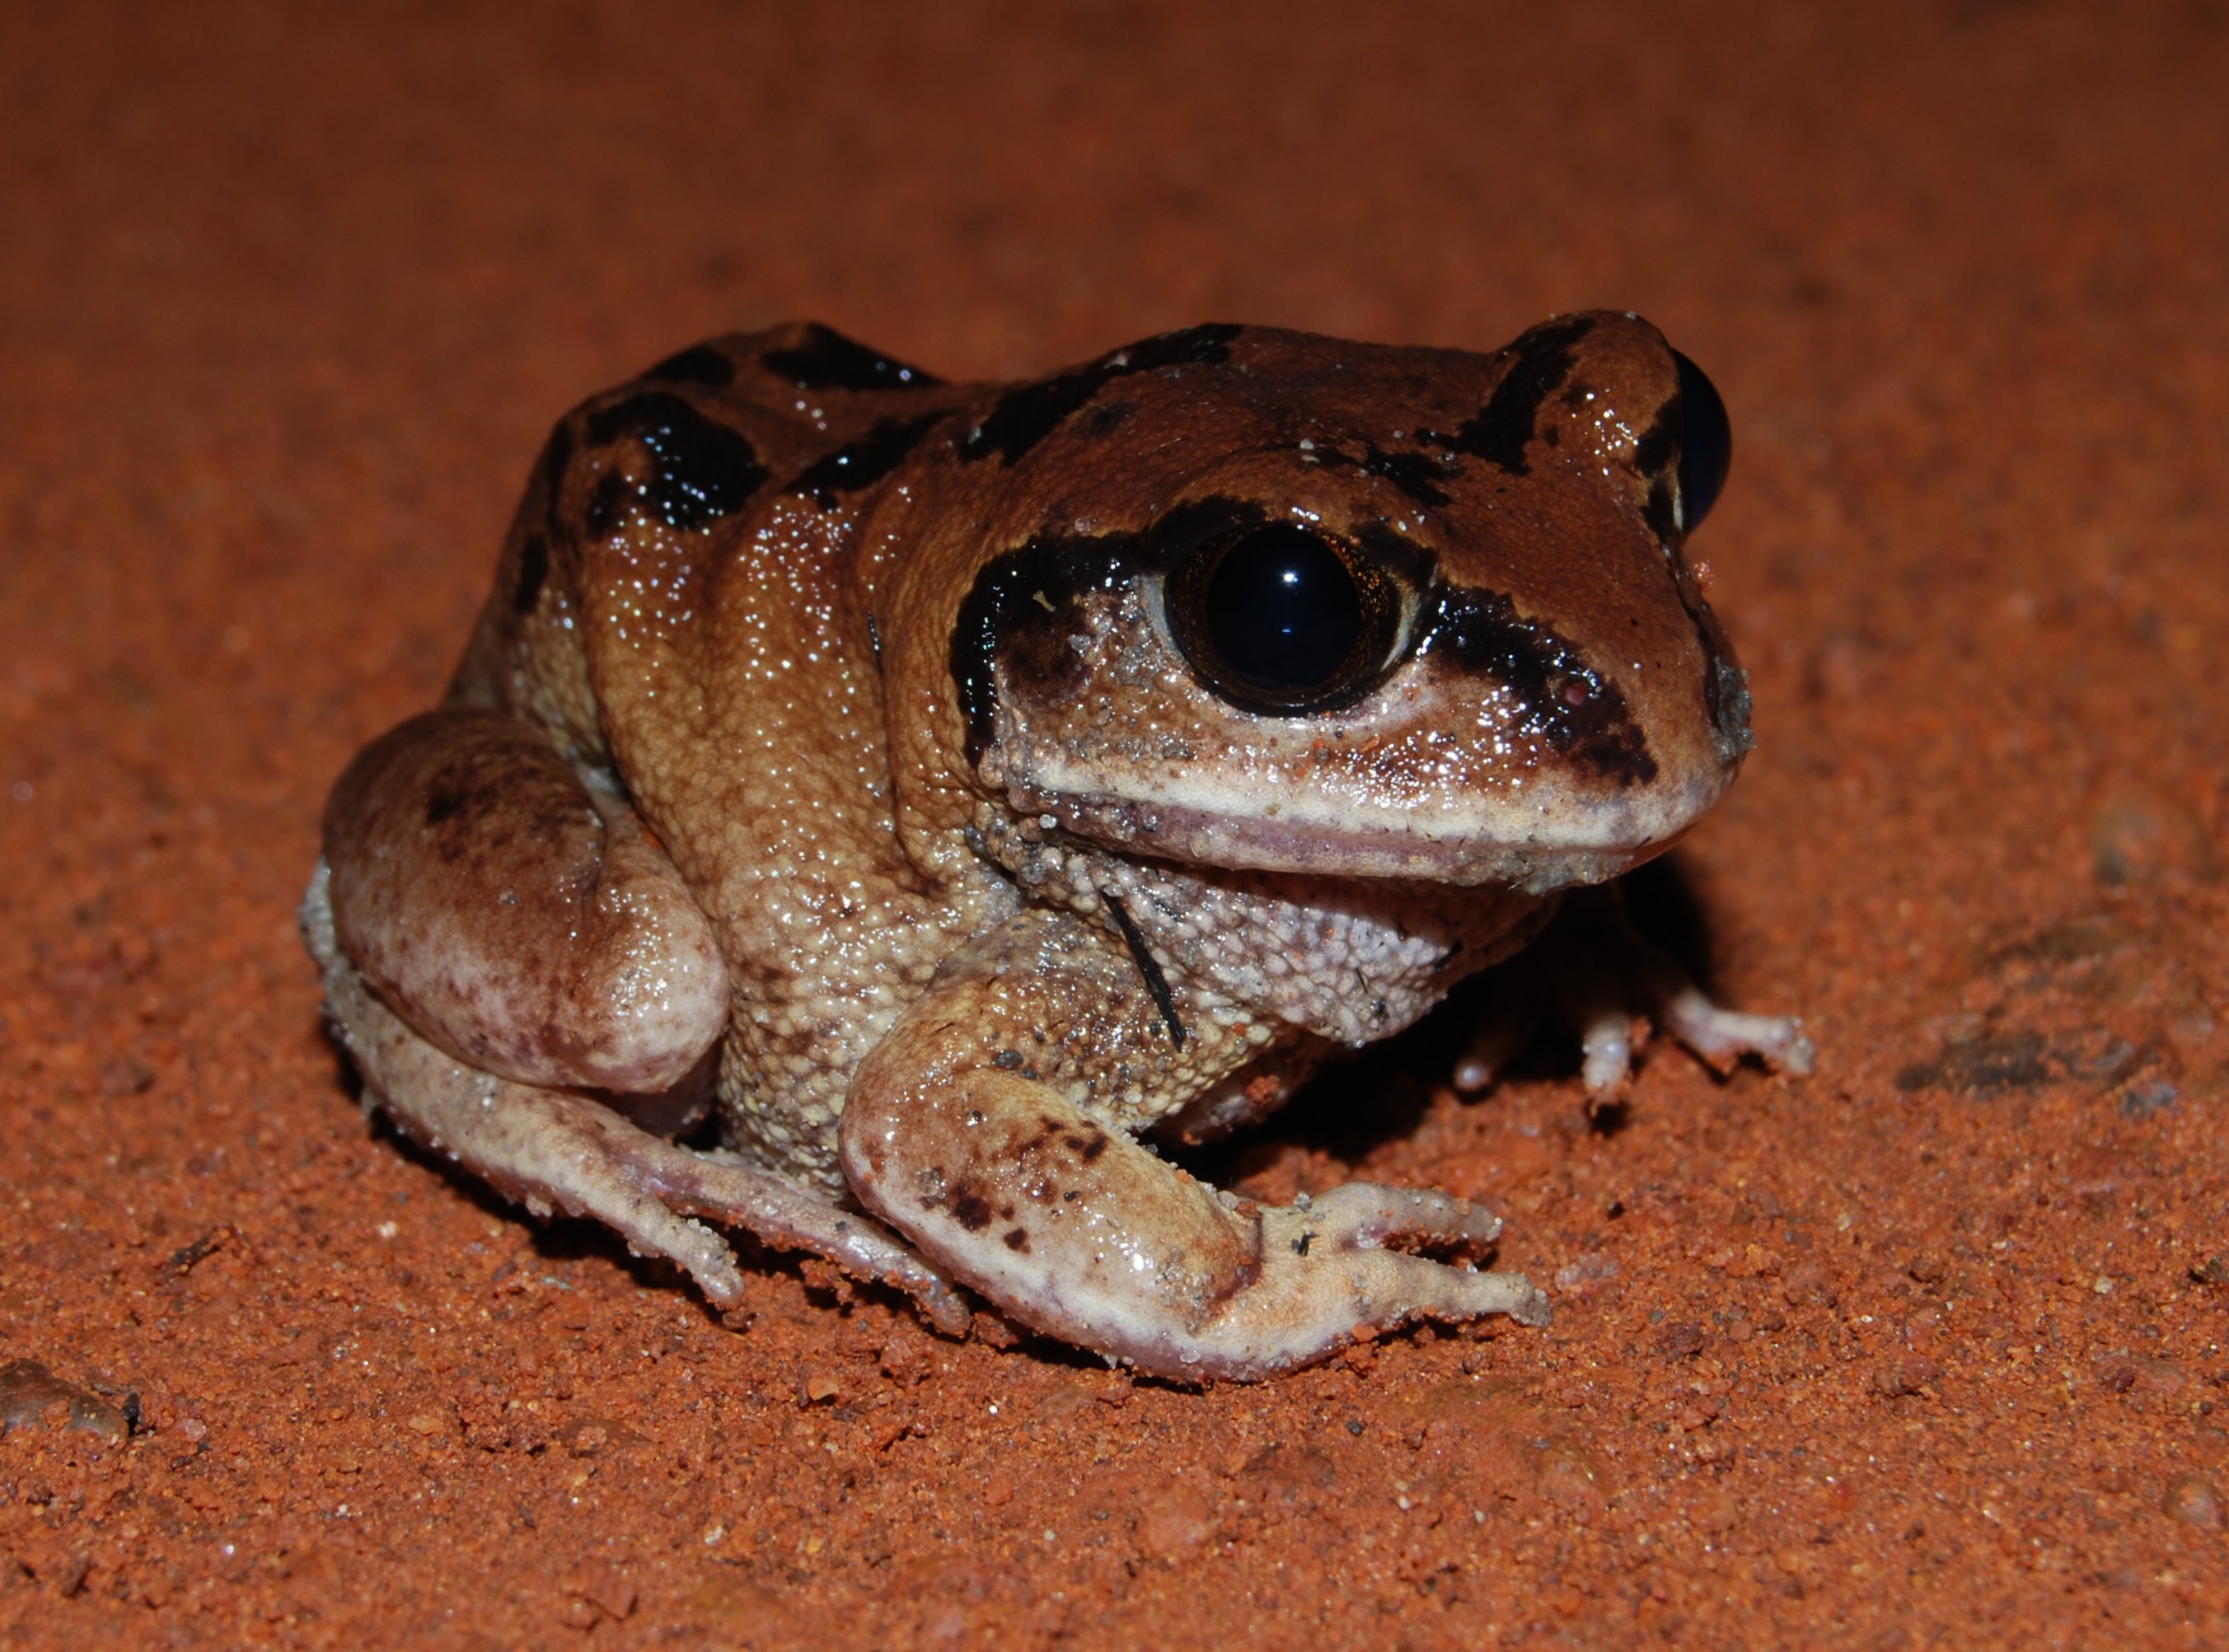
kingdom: Animalia
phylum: Chordata
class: Amphibia
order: Anura
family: Arthroleptidae
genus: Leptopelis
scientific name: Leptopelis bocagii
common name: Bocage's frog
